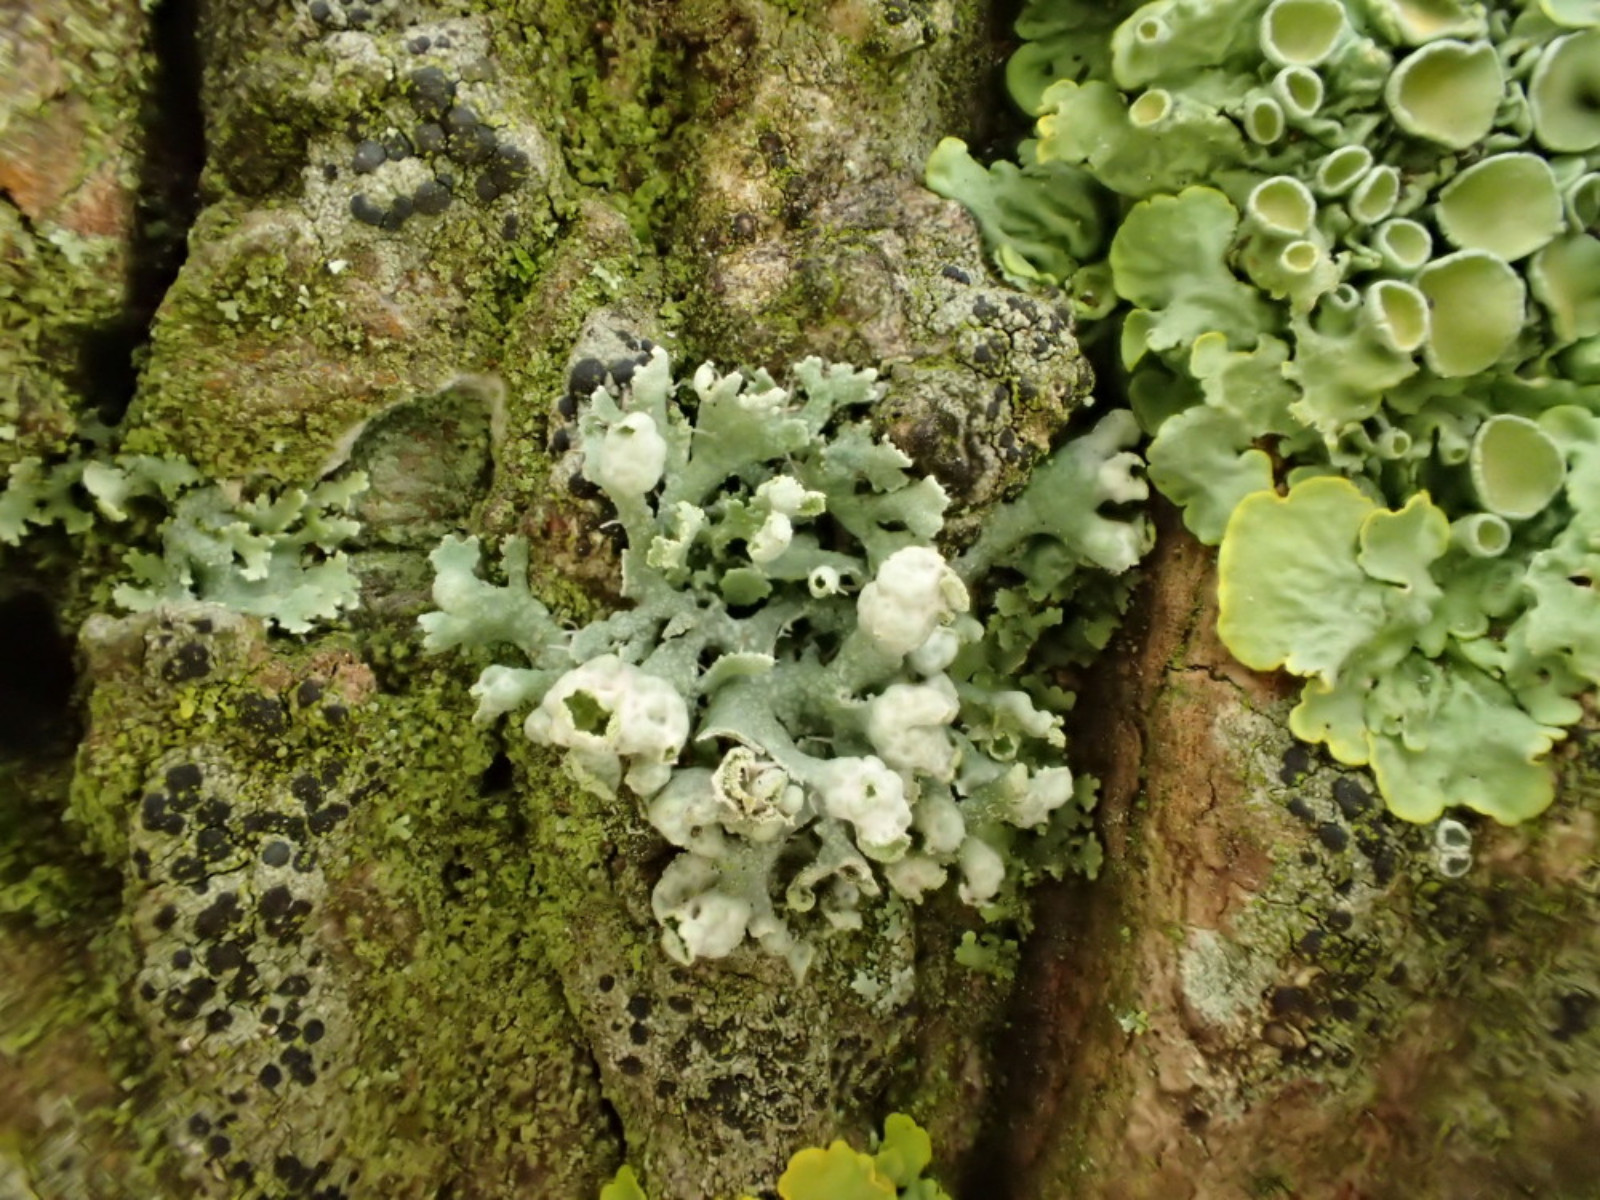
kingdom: Fungi
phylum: Ascomycota
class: Lecanoromycetes
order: Caliciales
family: Physciaceae
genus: Physcia
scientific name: Physcia adscendens
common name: hætte-rosetlav
